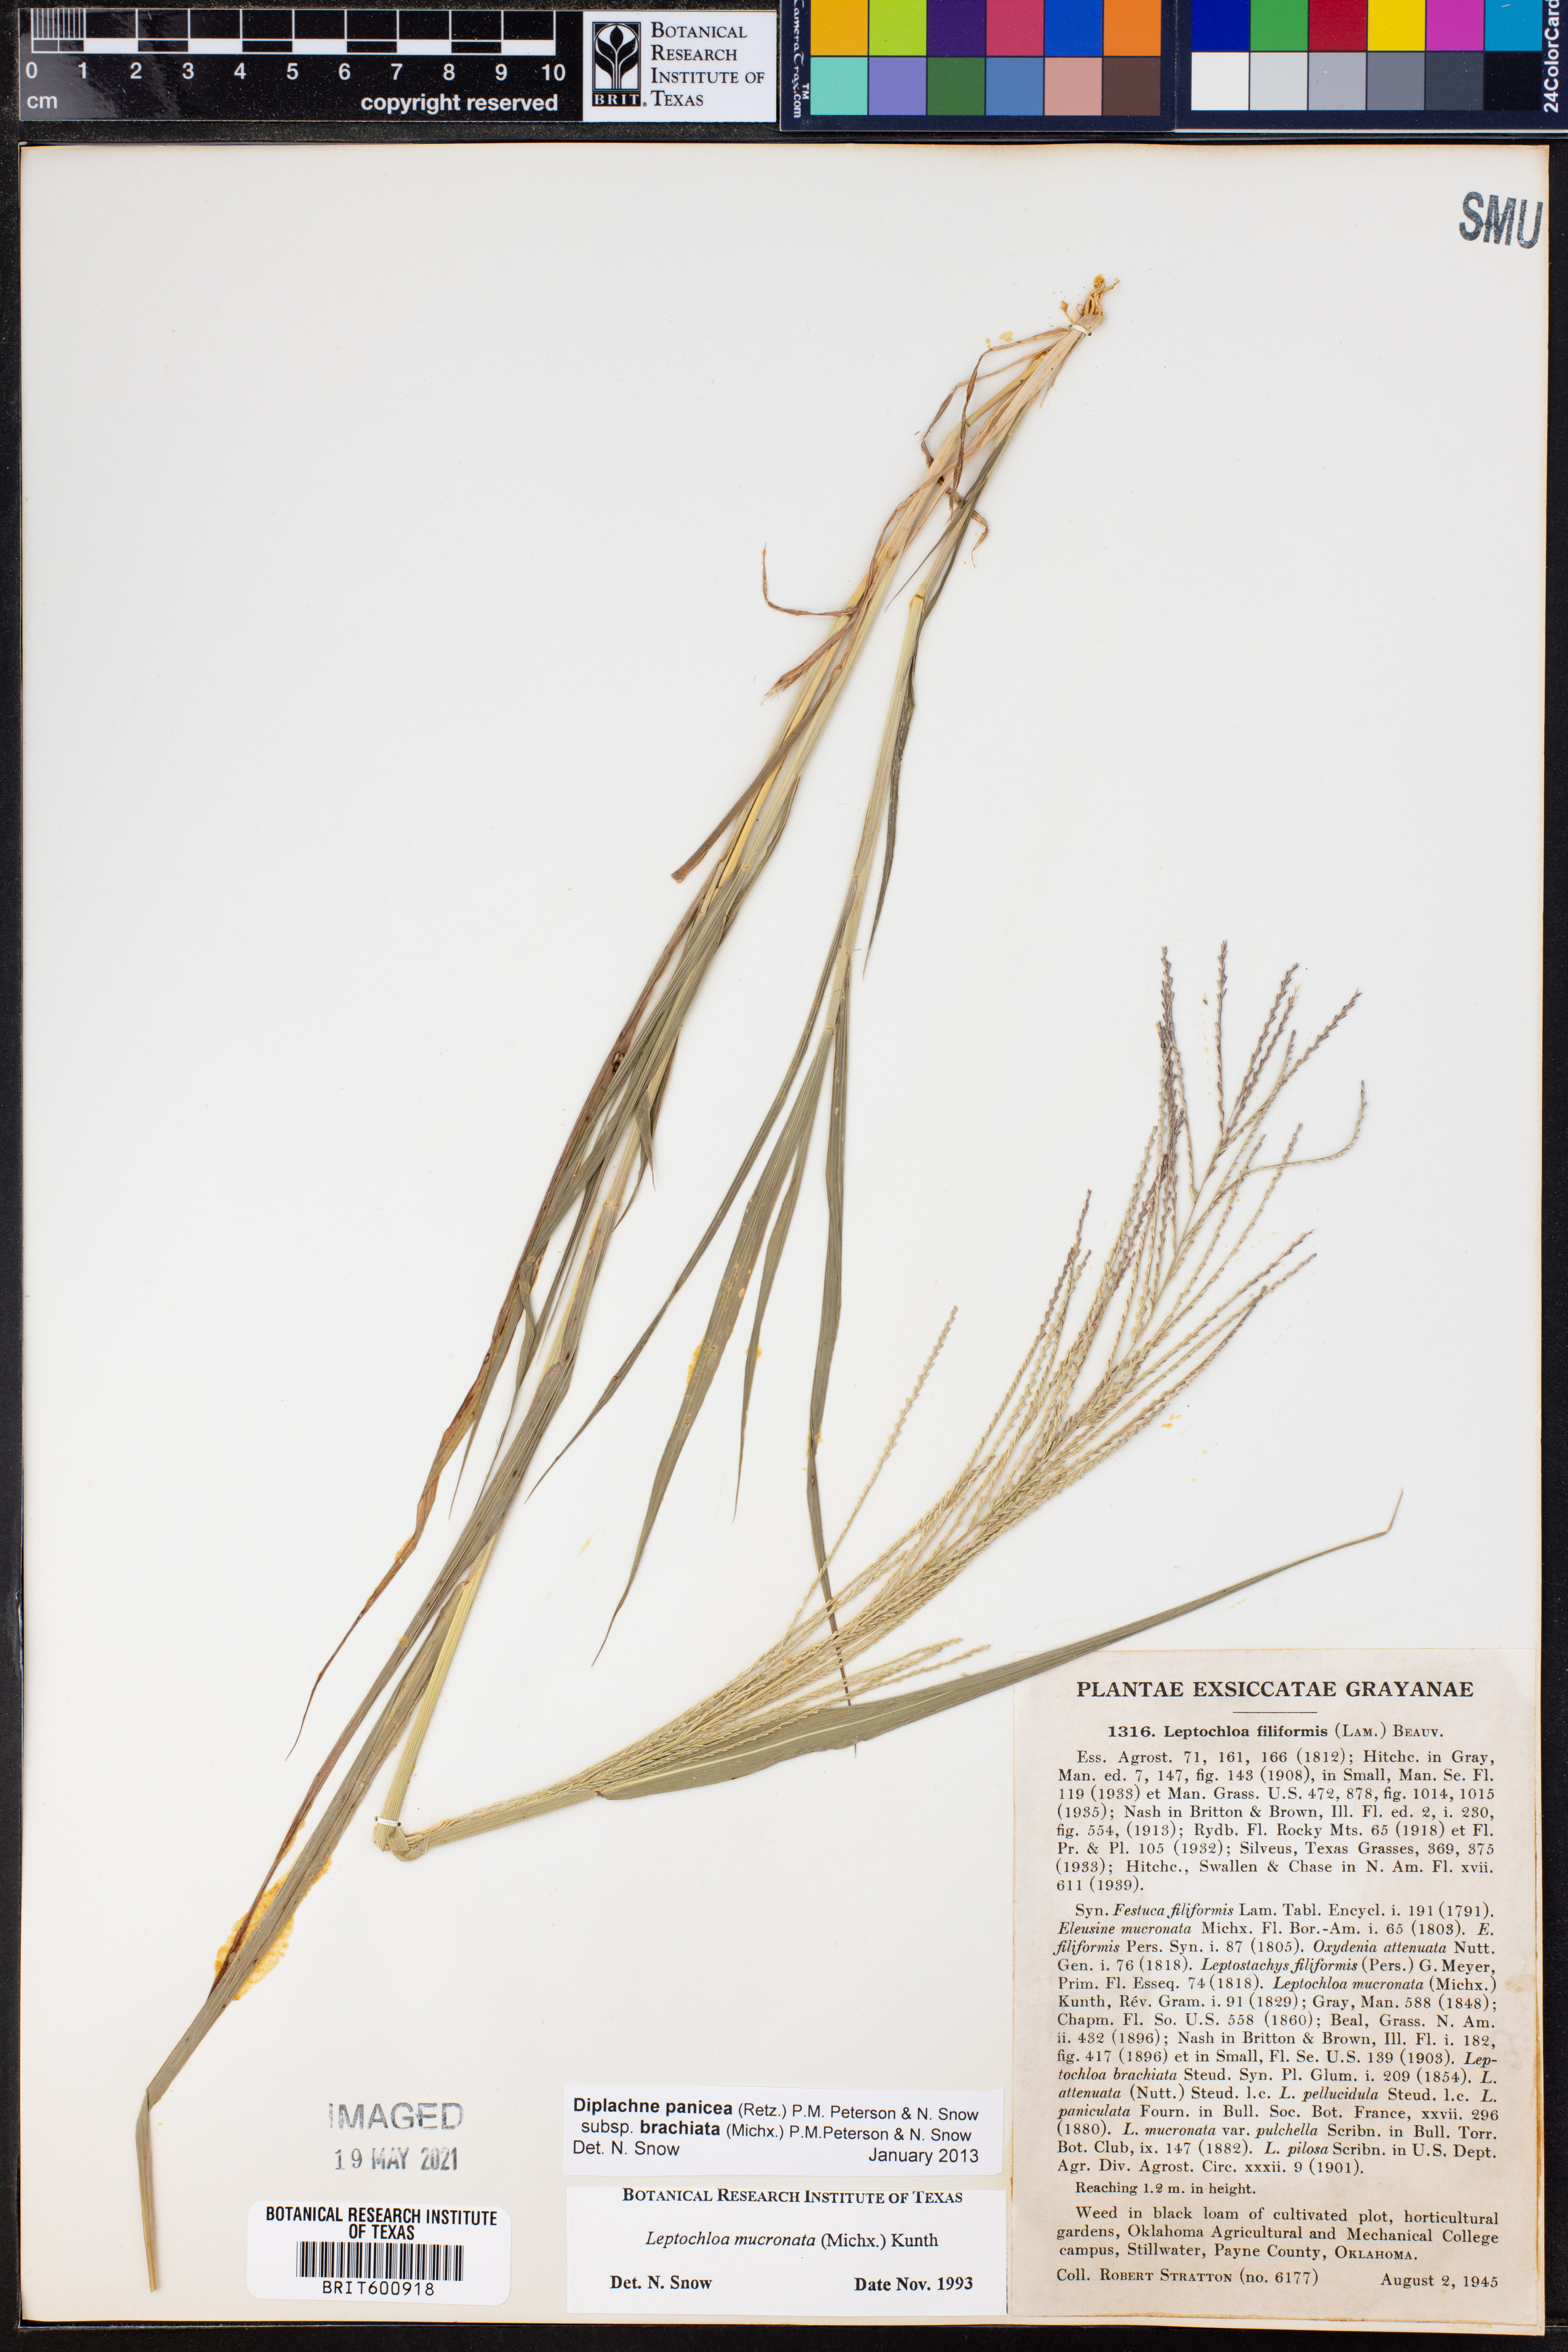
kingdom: Plantae
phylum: Tracheophyta
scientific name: Tracheophyta
